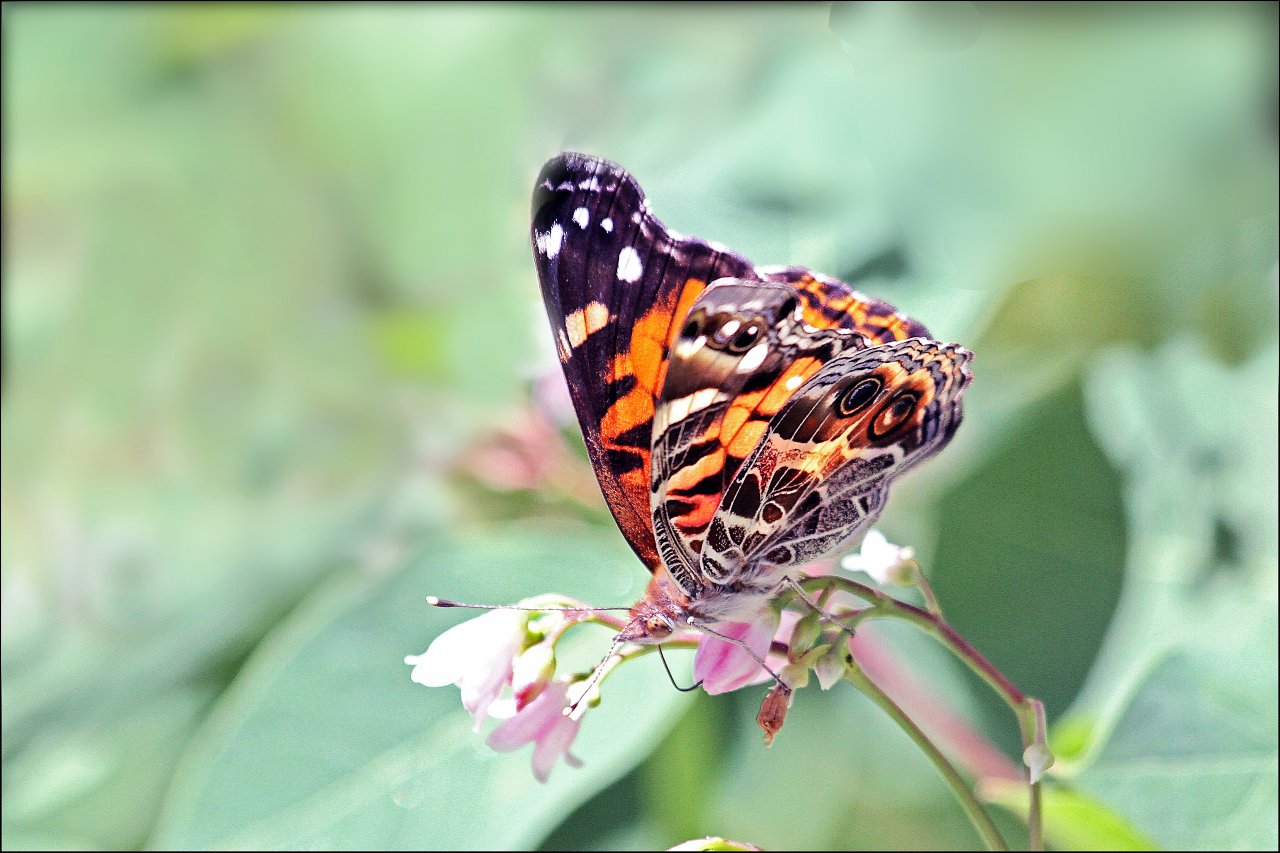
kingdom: Animalia
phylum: Arthropoda
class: Insecta
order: Lepidoptera
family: Nymphalidae
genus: Vanessa
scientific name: Vanessa virginiensis
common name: American Lady
